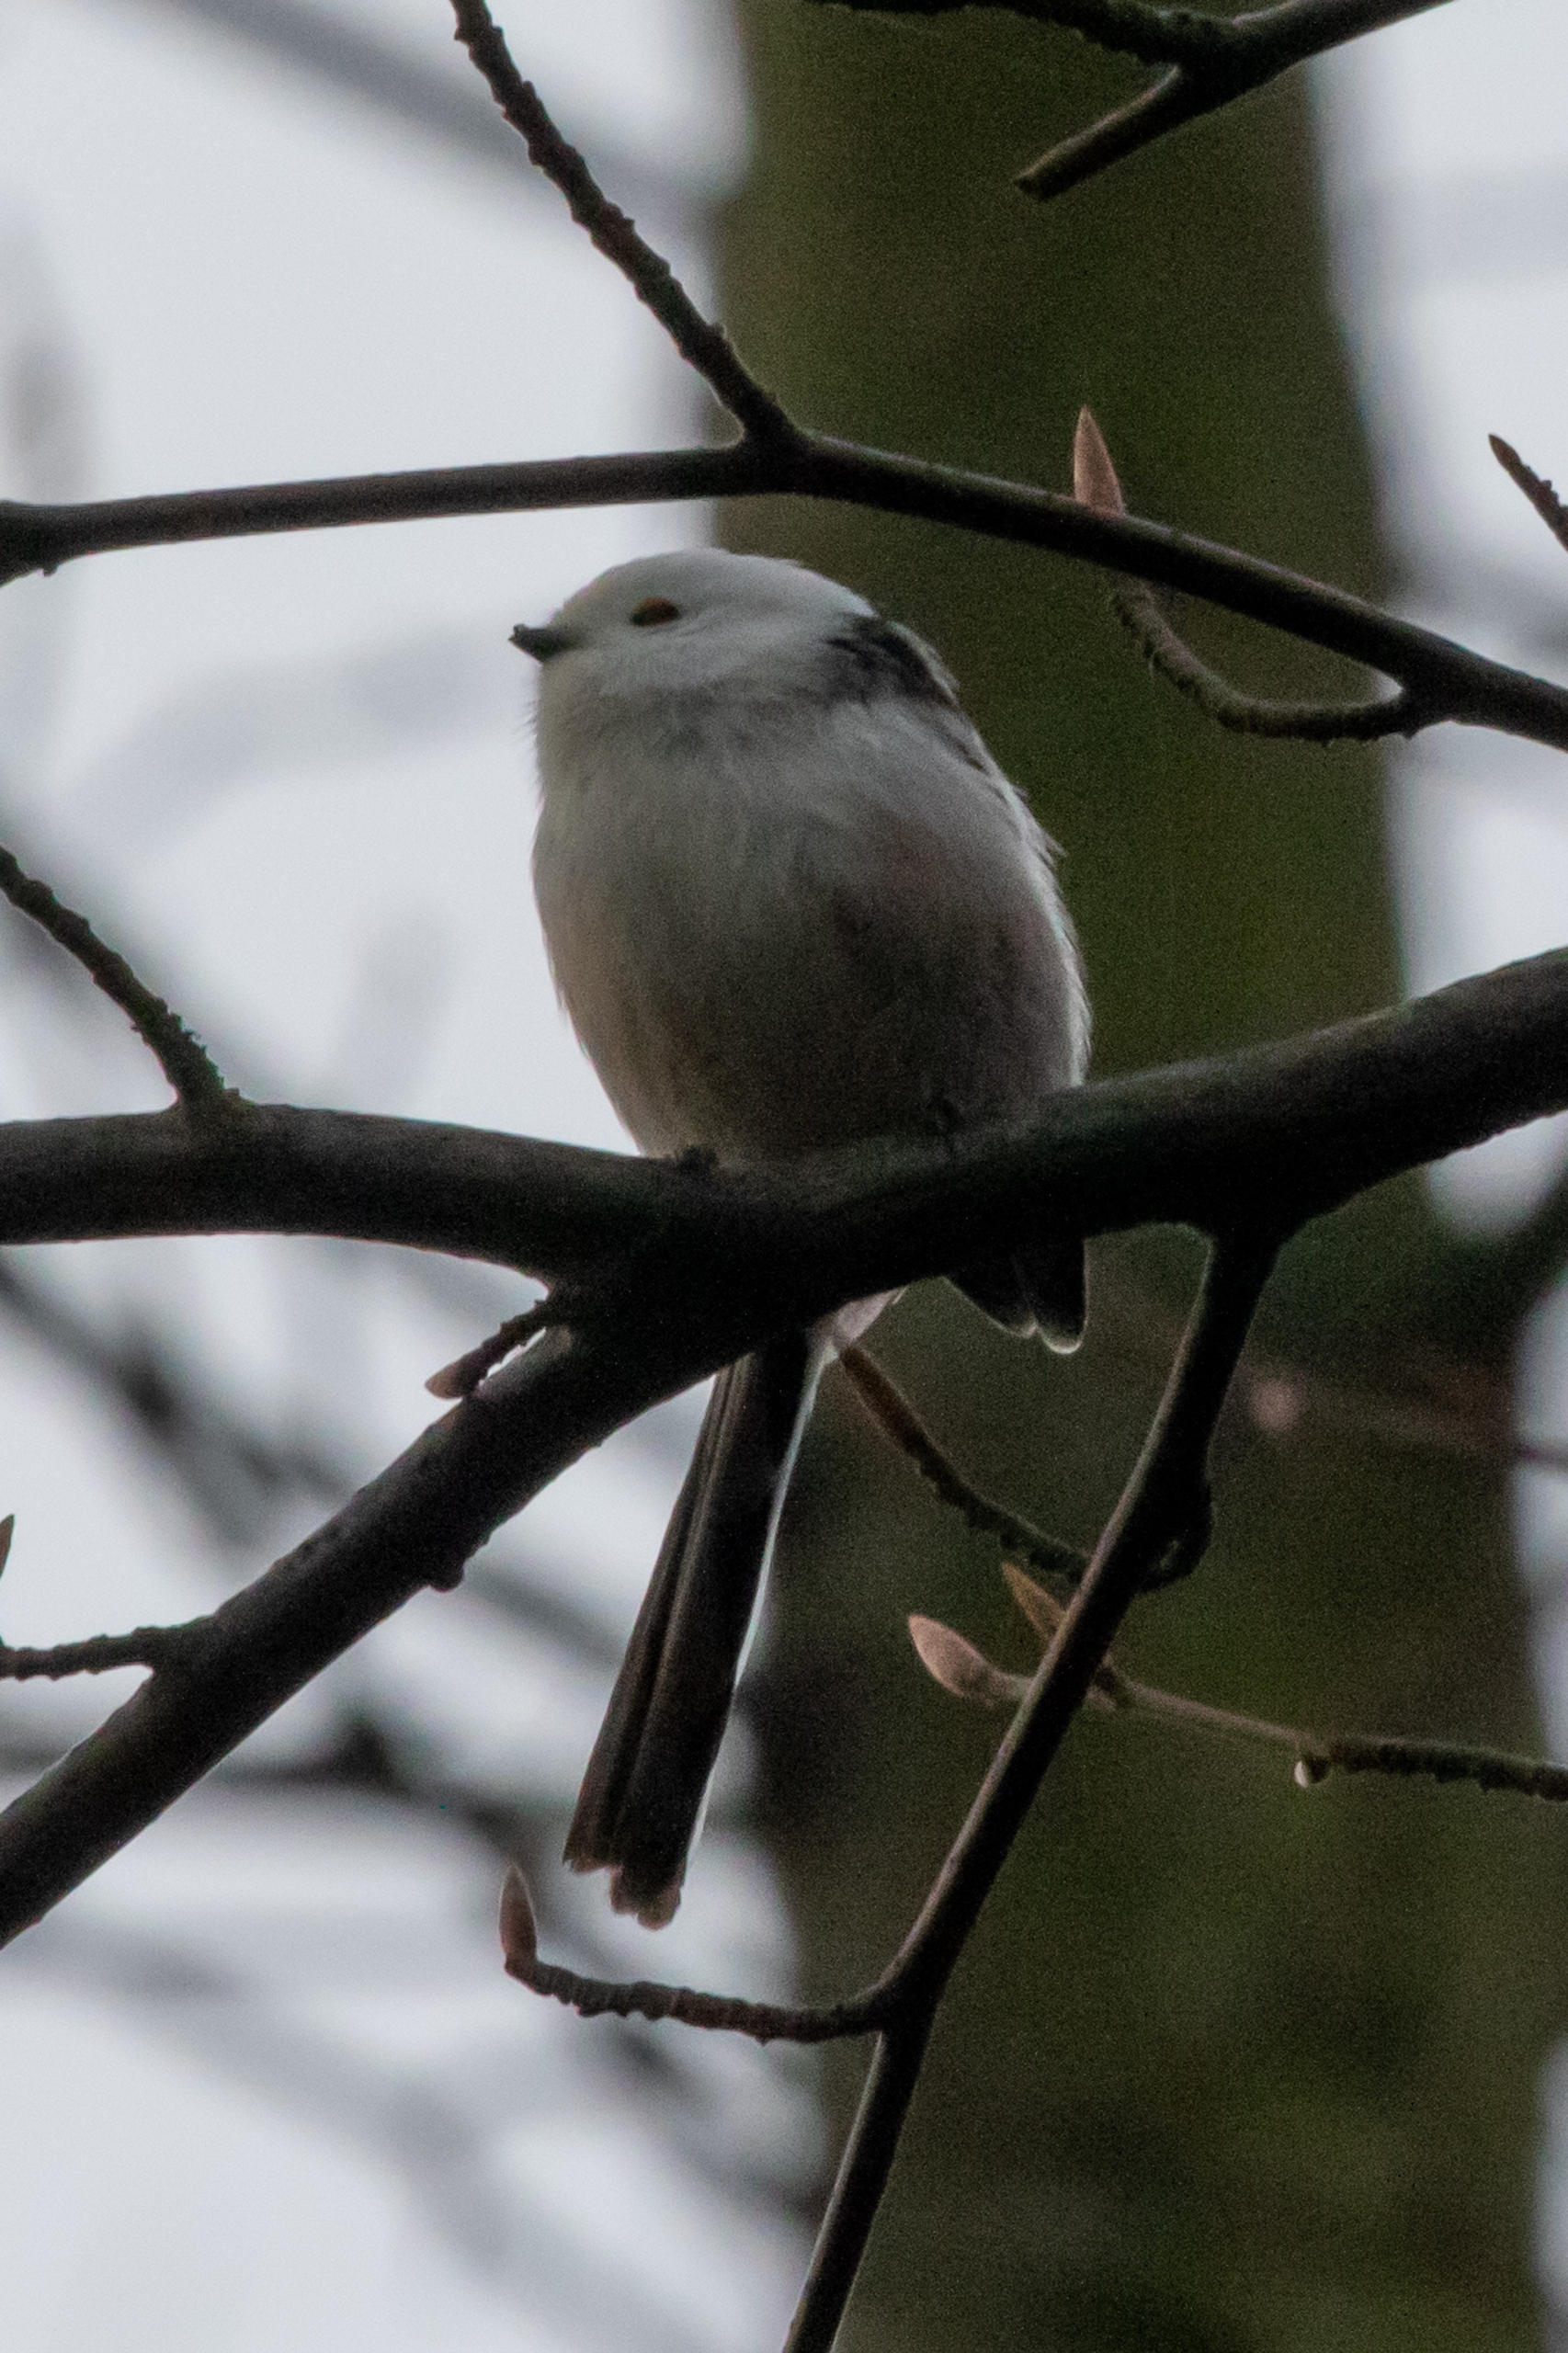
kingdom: Animalia
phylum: Chordata
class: Aves
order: Passeriformes
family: Aegithalidae
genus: Aegithalos
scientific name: Aegithalos caudatus
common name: Halemejse
